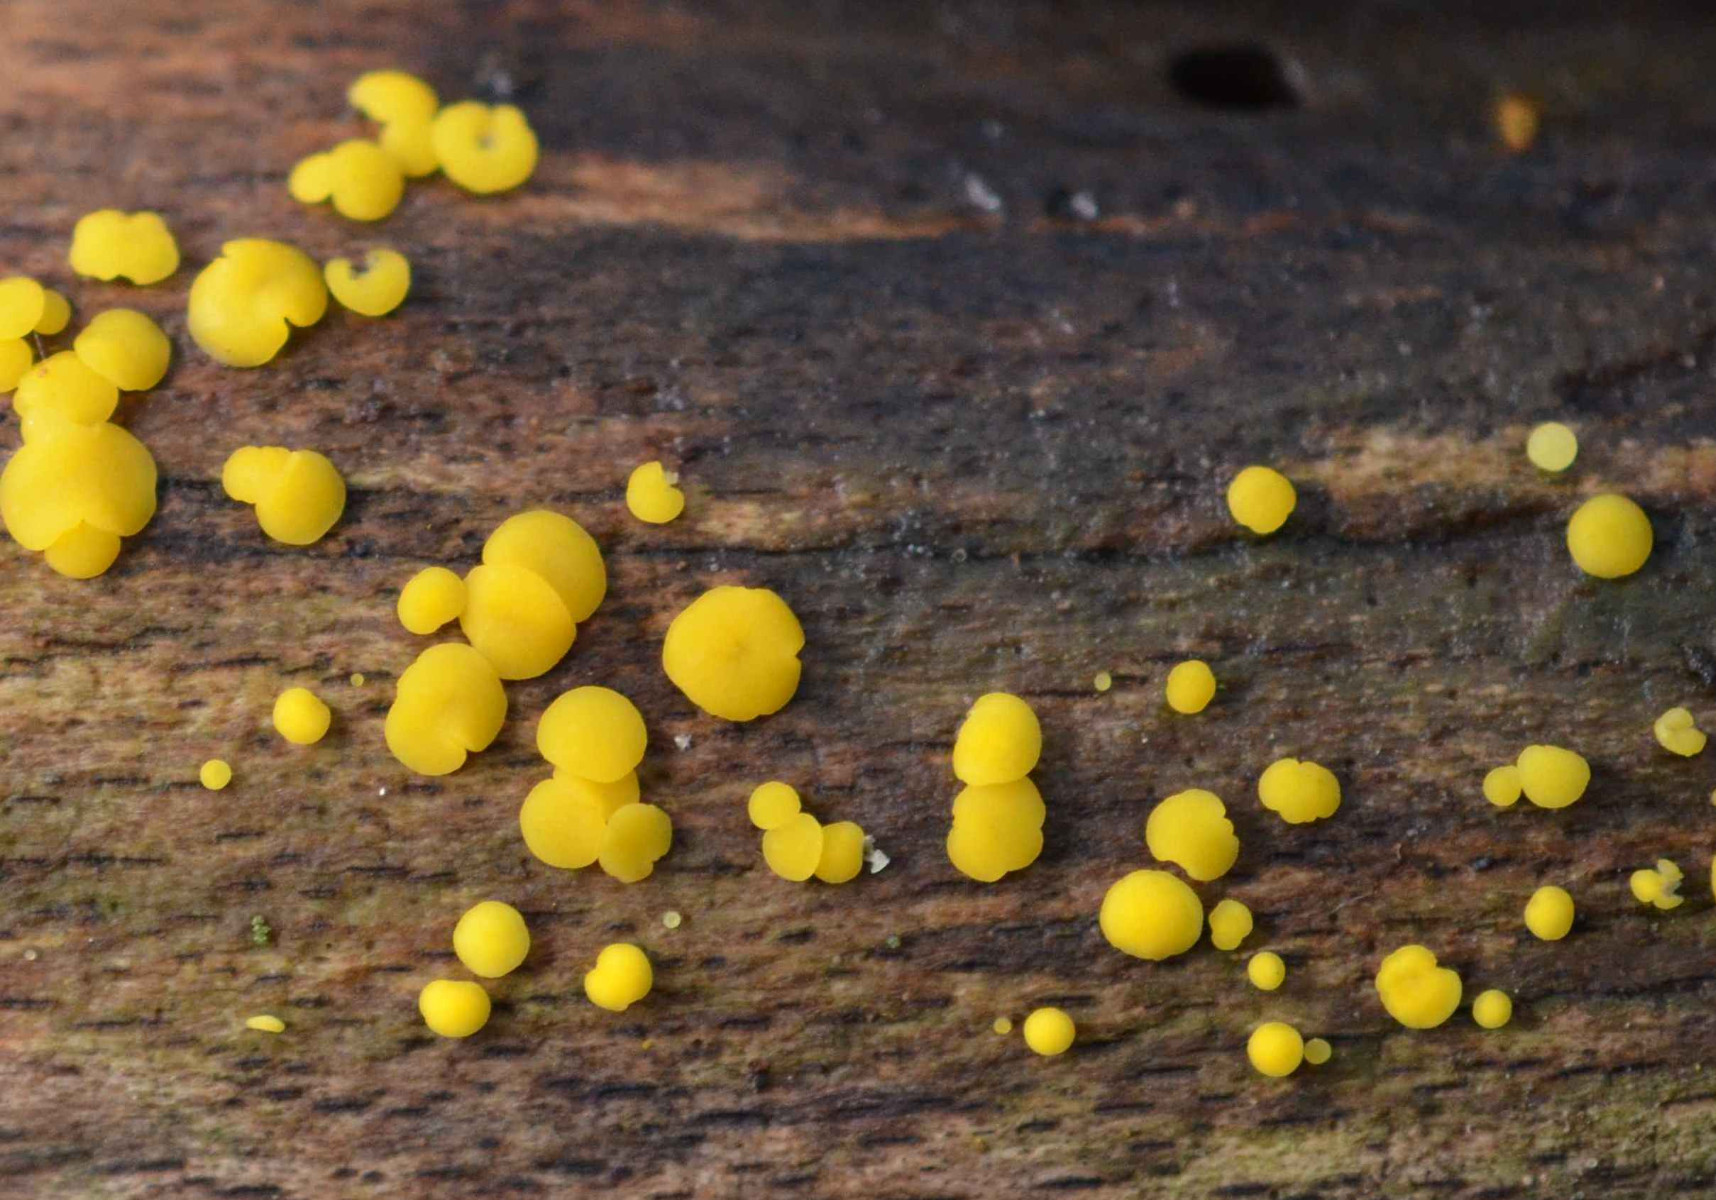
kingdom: Fungi
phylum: Ascomycota
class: Leotiomycetes
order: Helotiales
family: Pezizellaceae
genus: Calycina
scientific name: Calycina citrina
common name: almindelig gulskive
